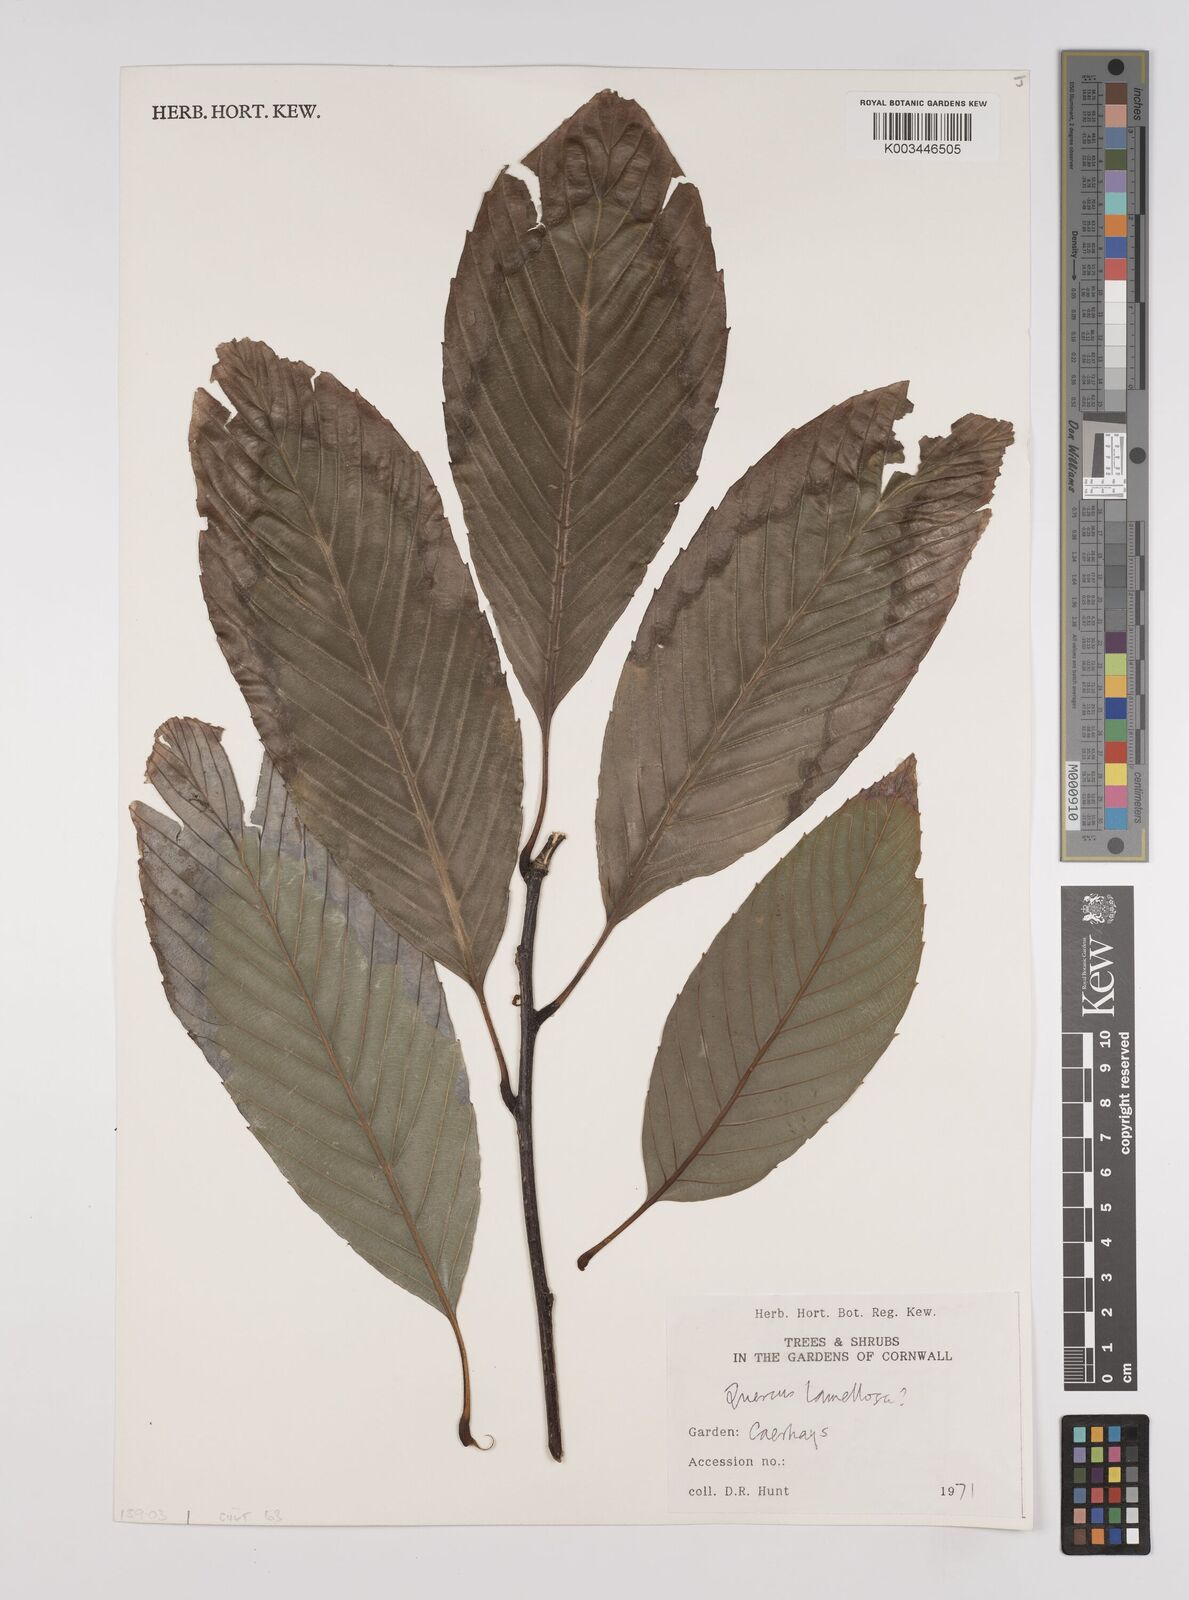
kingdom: Plantae
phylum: Tracheophyta
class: Magnoliopsida
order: Fagales
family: Fagaceae
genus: Quercus
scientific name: Quercus lamellosa
